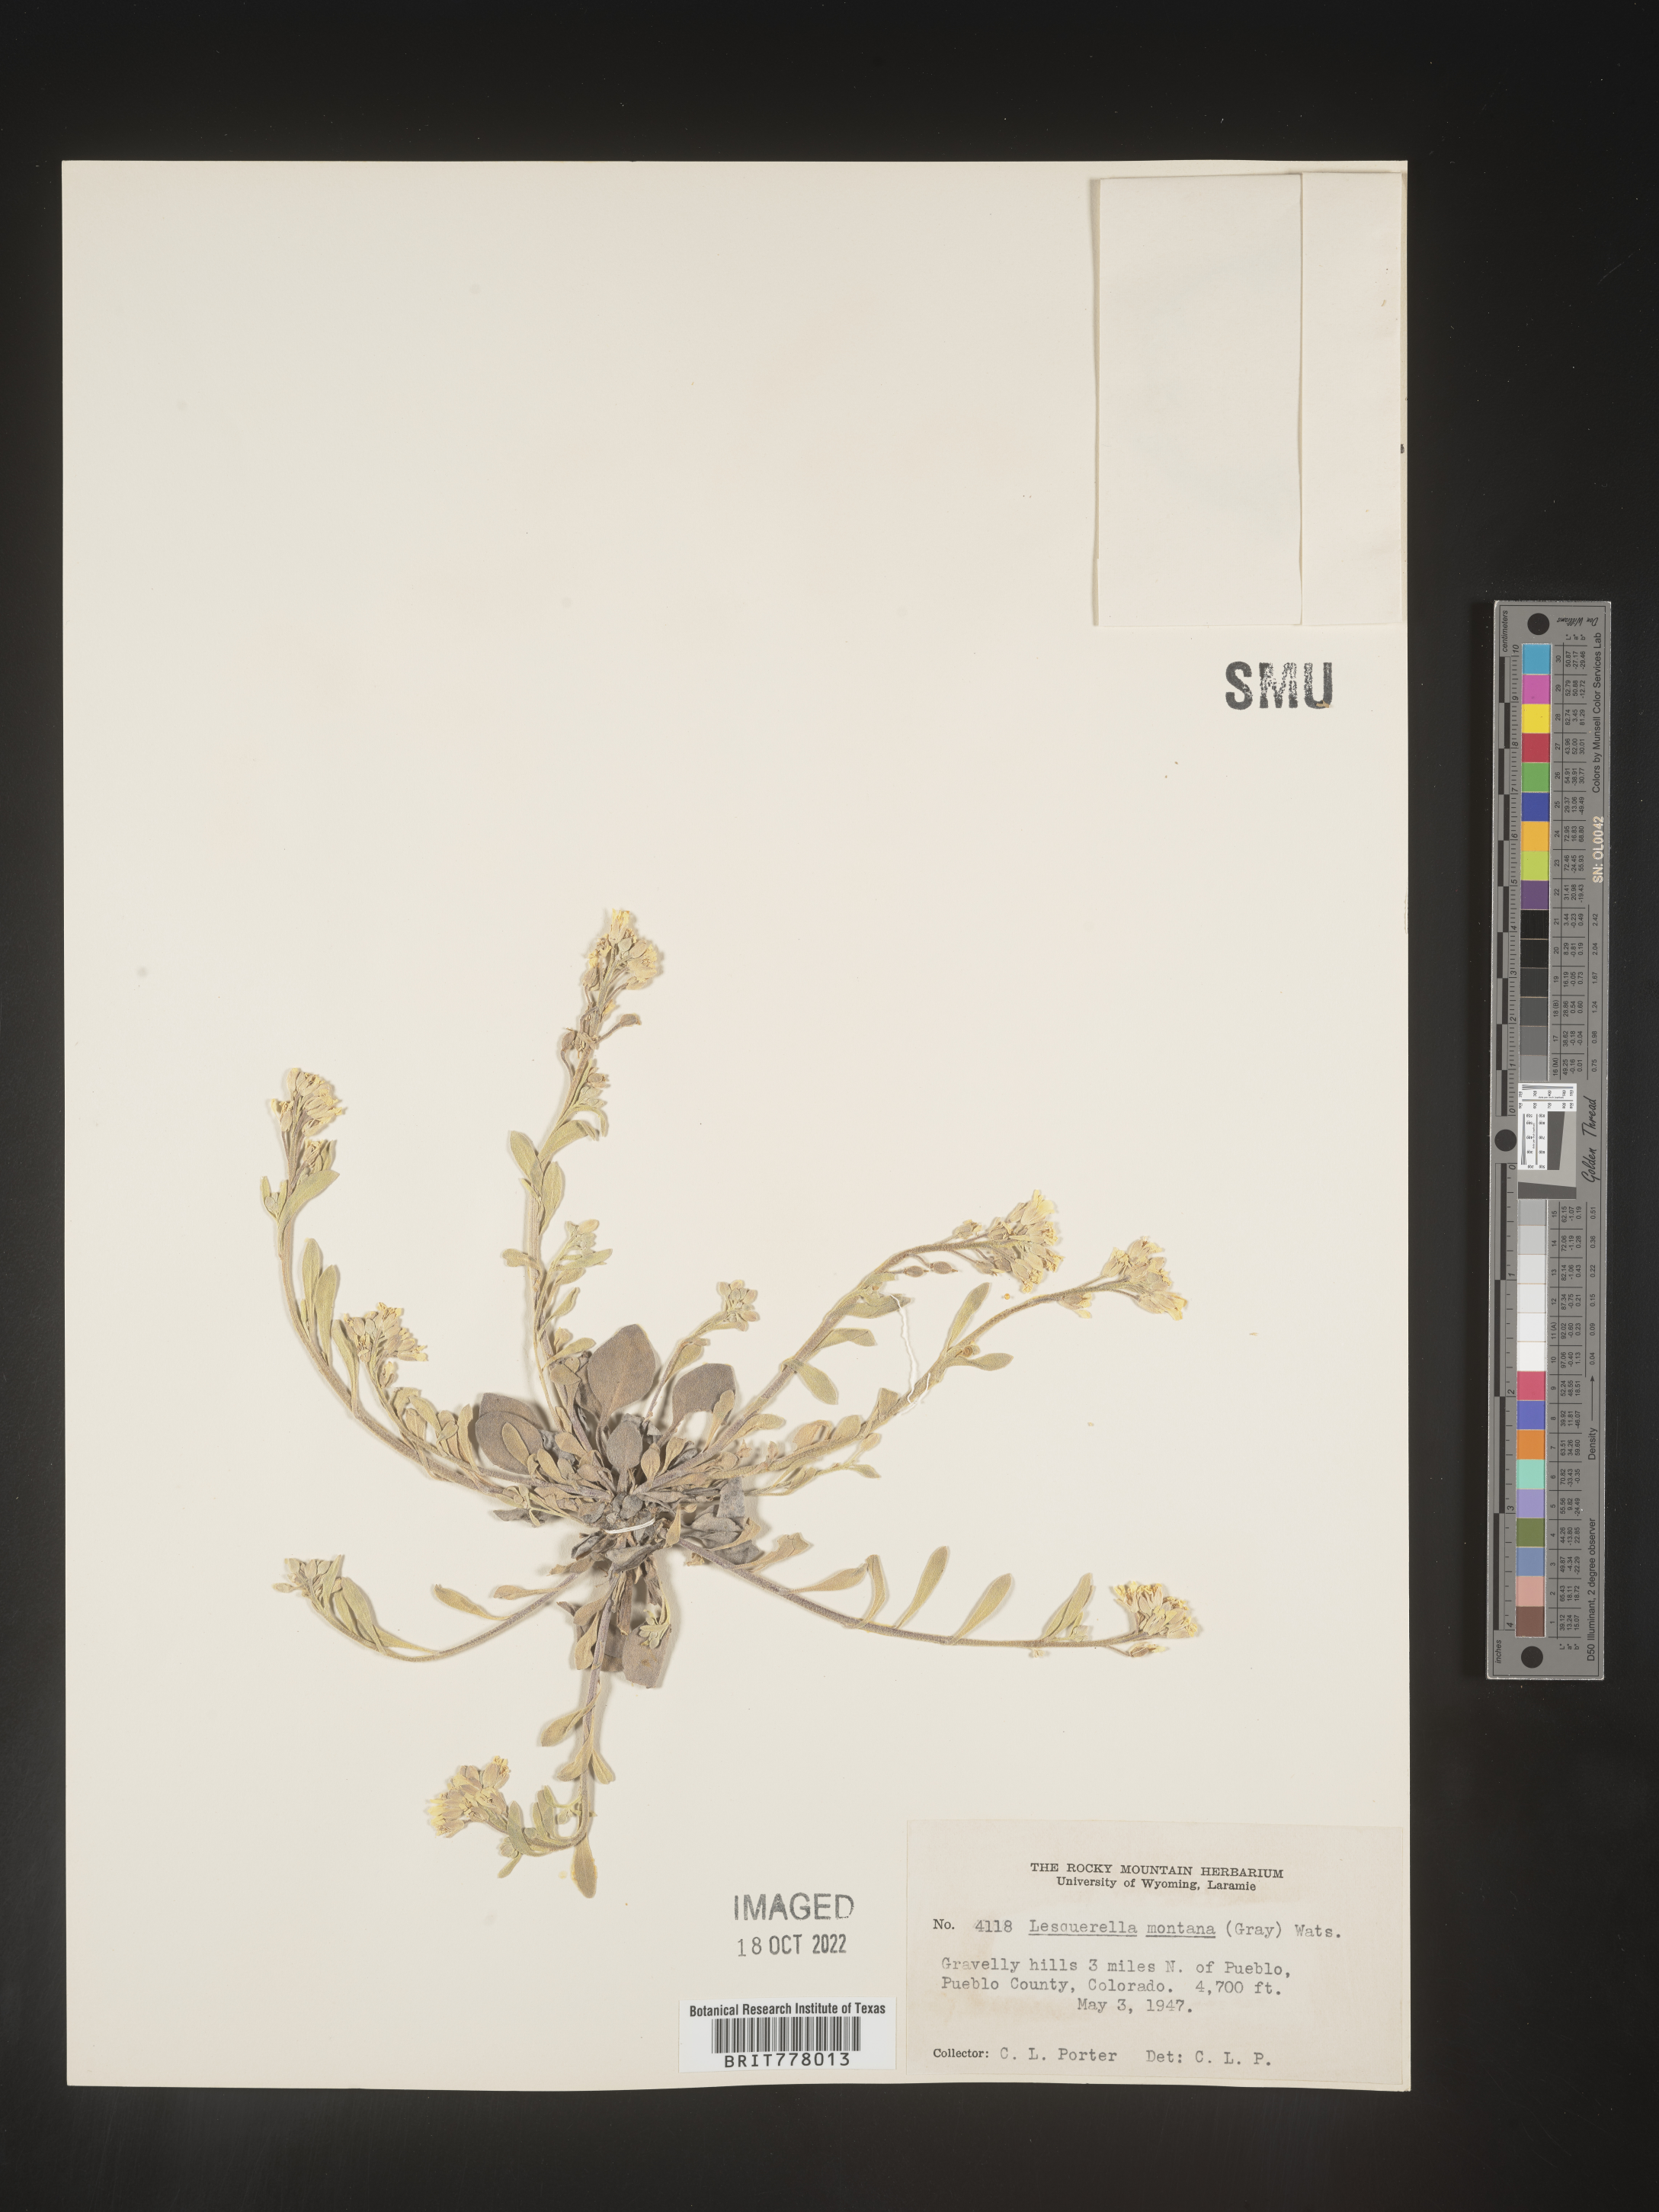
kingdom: Chromista
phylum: Cercozoa
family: Psammonobiotidae
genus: Lesquerella
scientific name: Lesquerella
